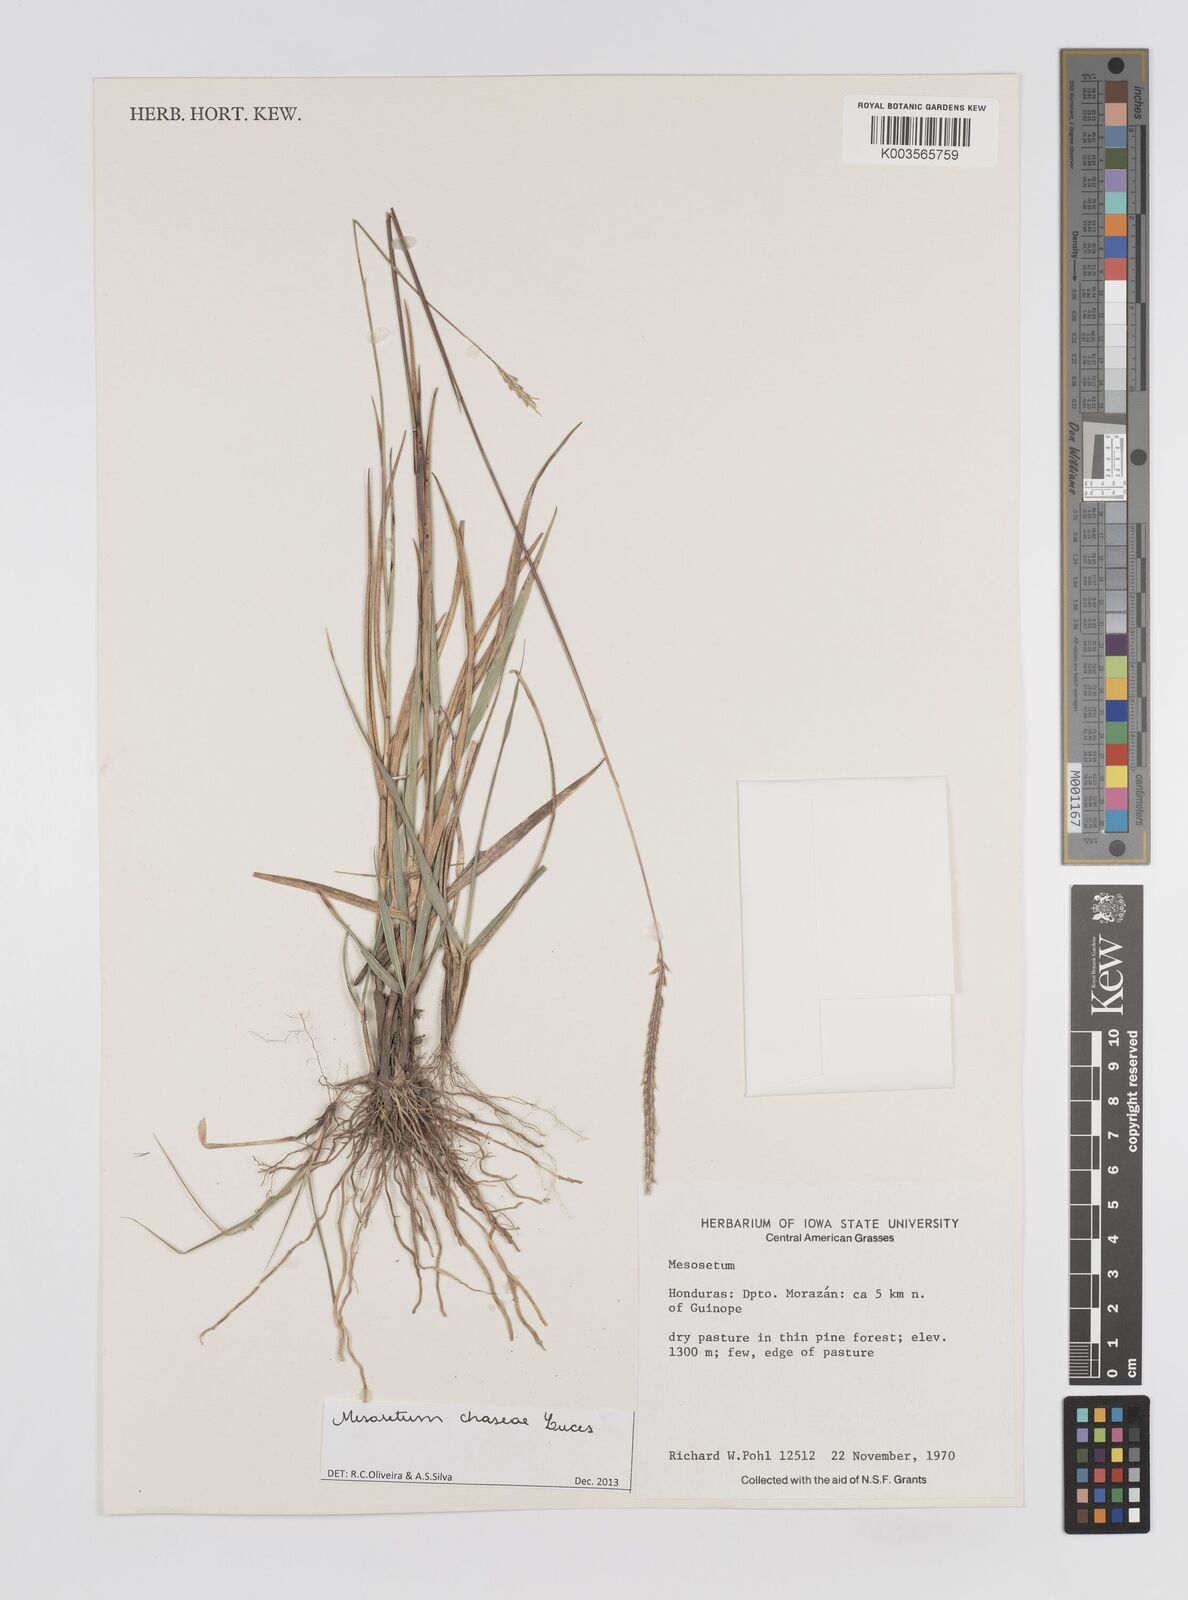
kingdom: Plantae
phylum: Tracheophyta
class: Liliopsida
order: Poales
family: Poaceae
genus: Mesosetum
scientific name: Mesosetum stoloniferum
